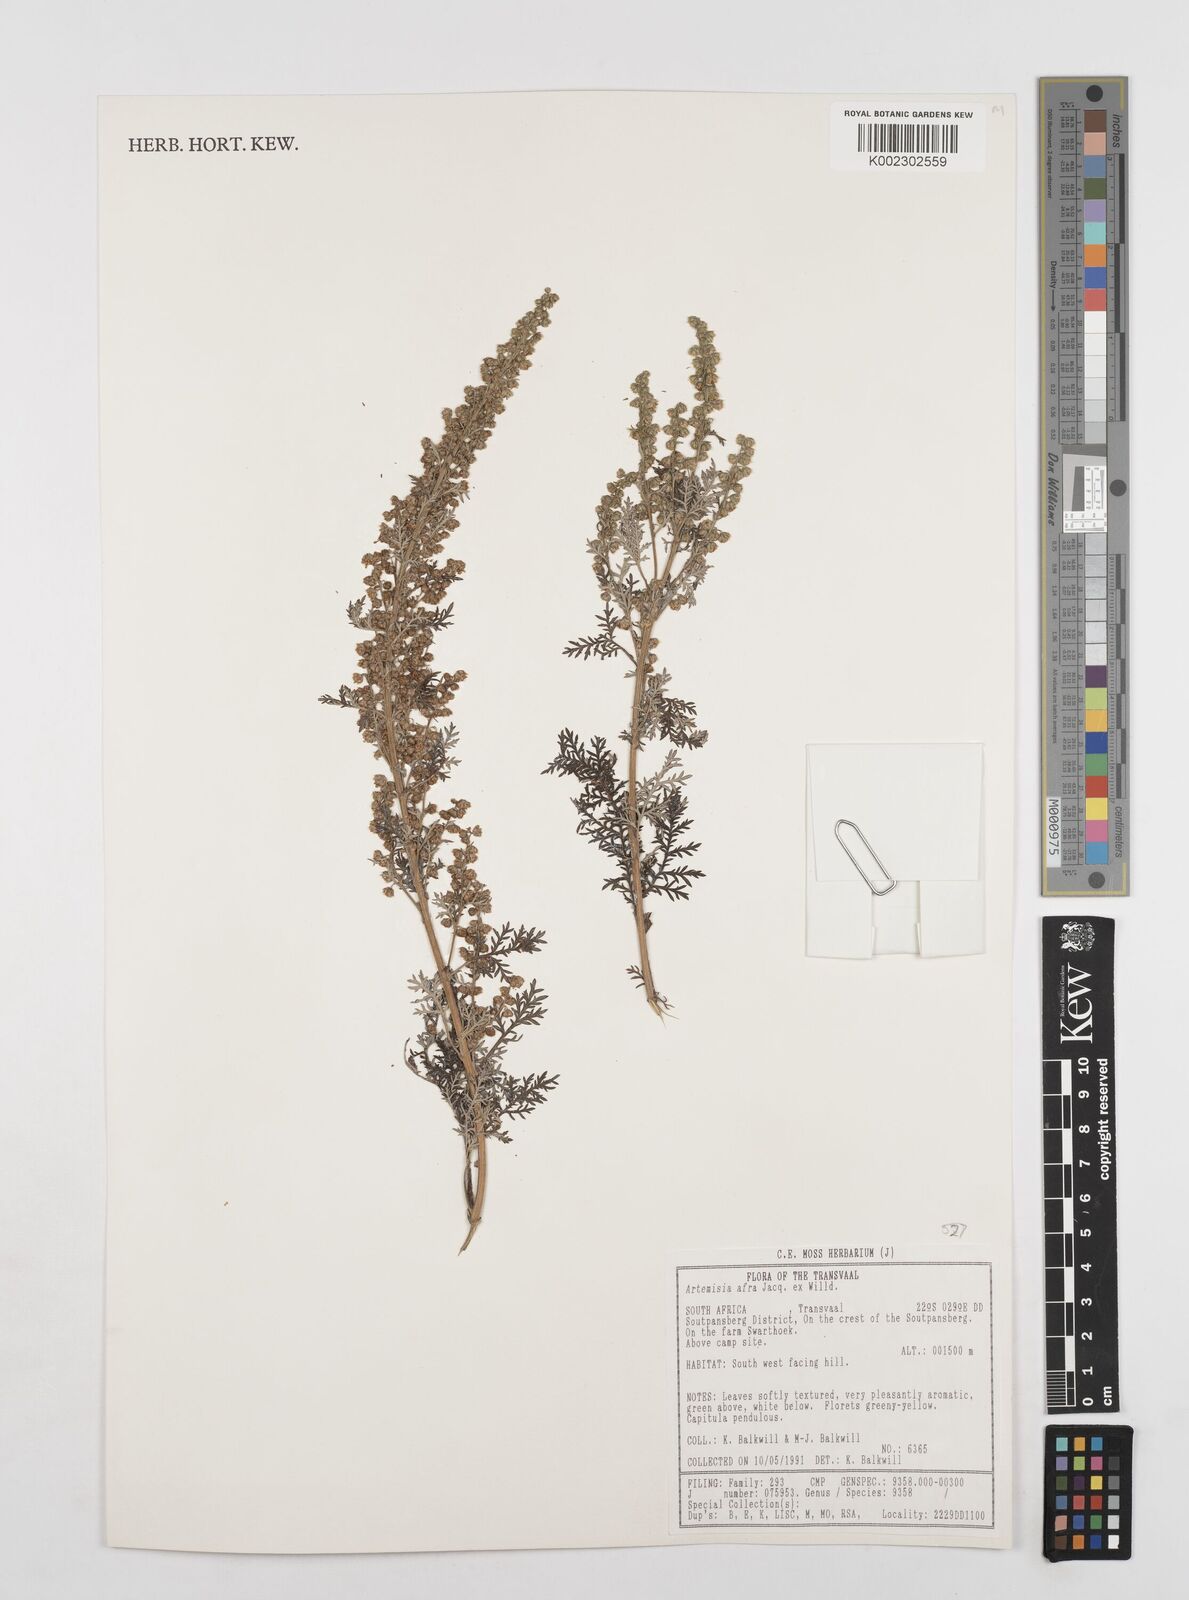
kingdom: Plantae
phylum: Tracheophyta
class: Magnoliopsida
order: Asterales
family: Asteraceae
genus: Artemisia
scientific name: Artemisia afra
